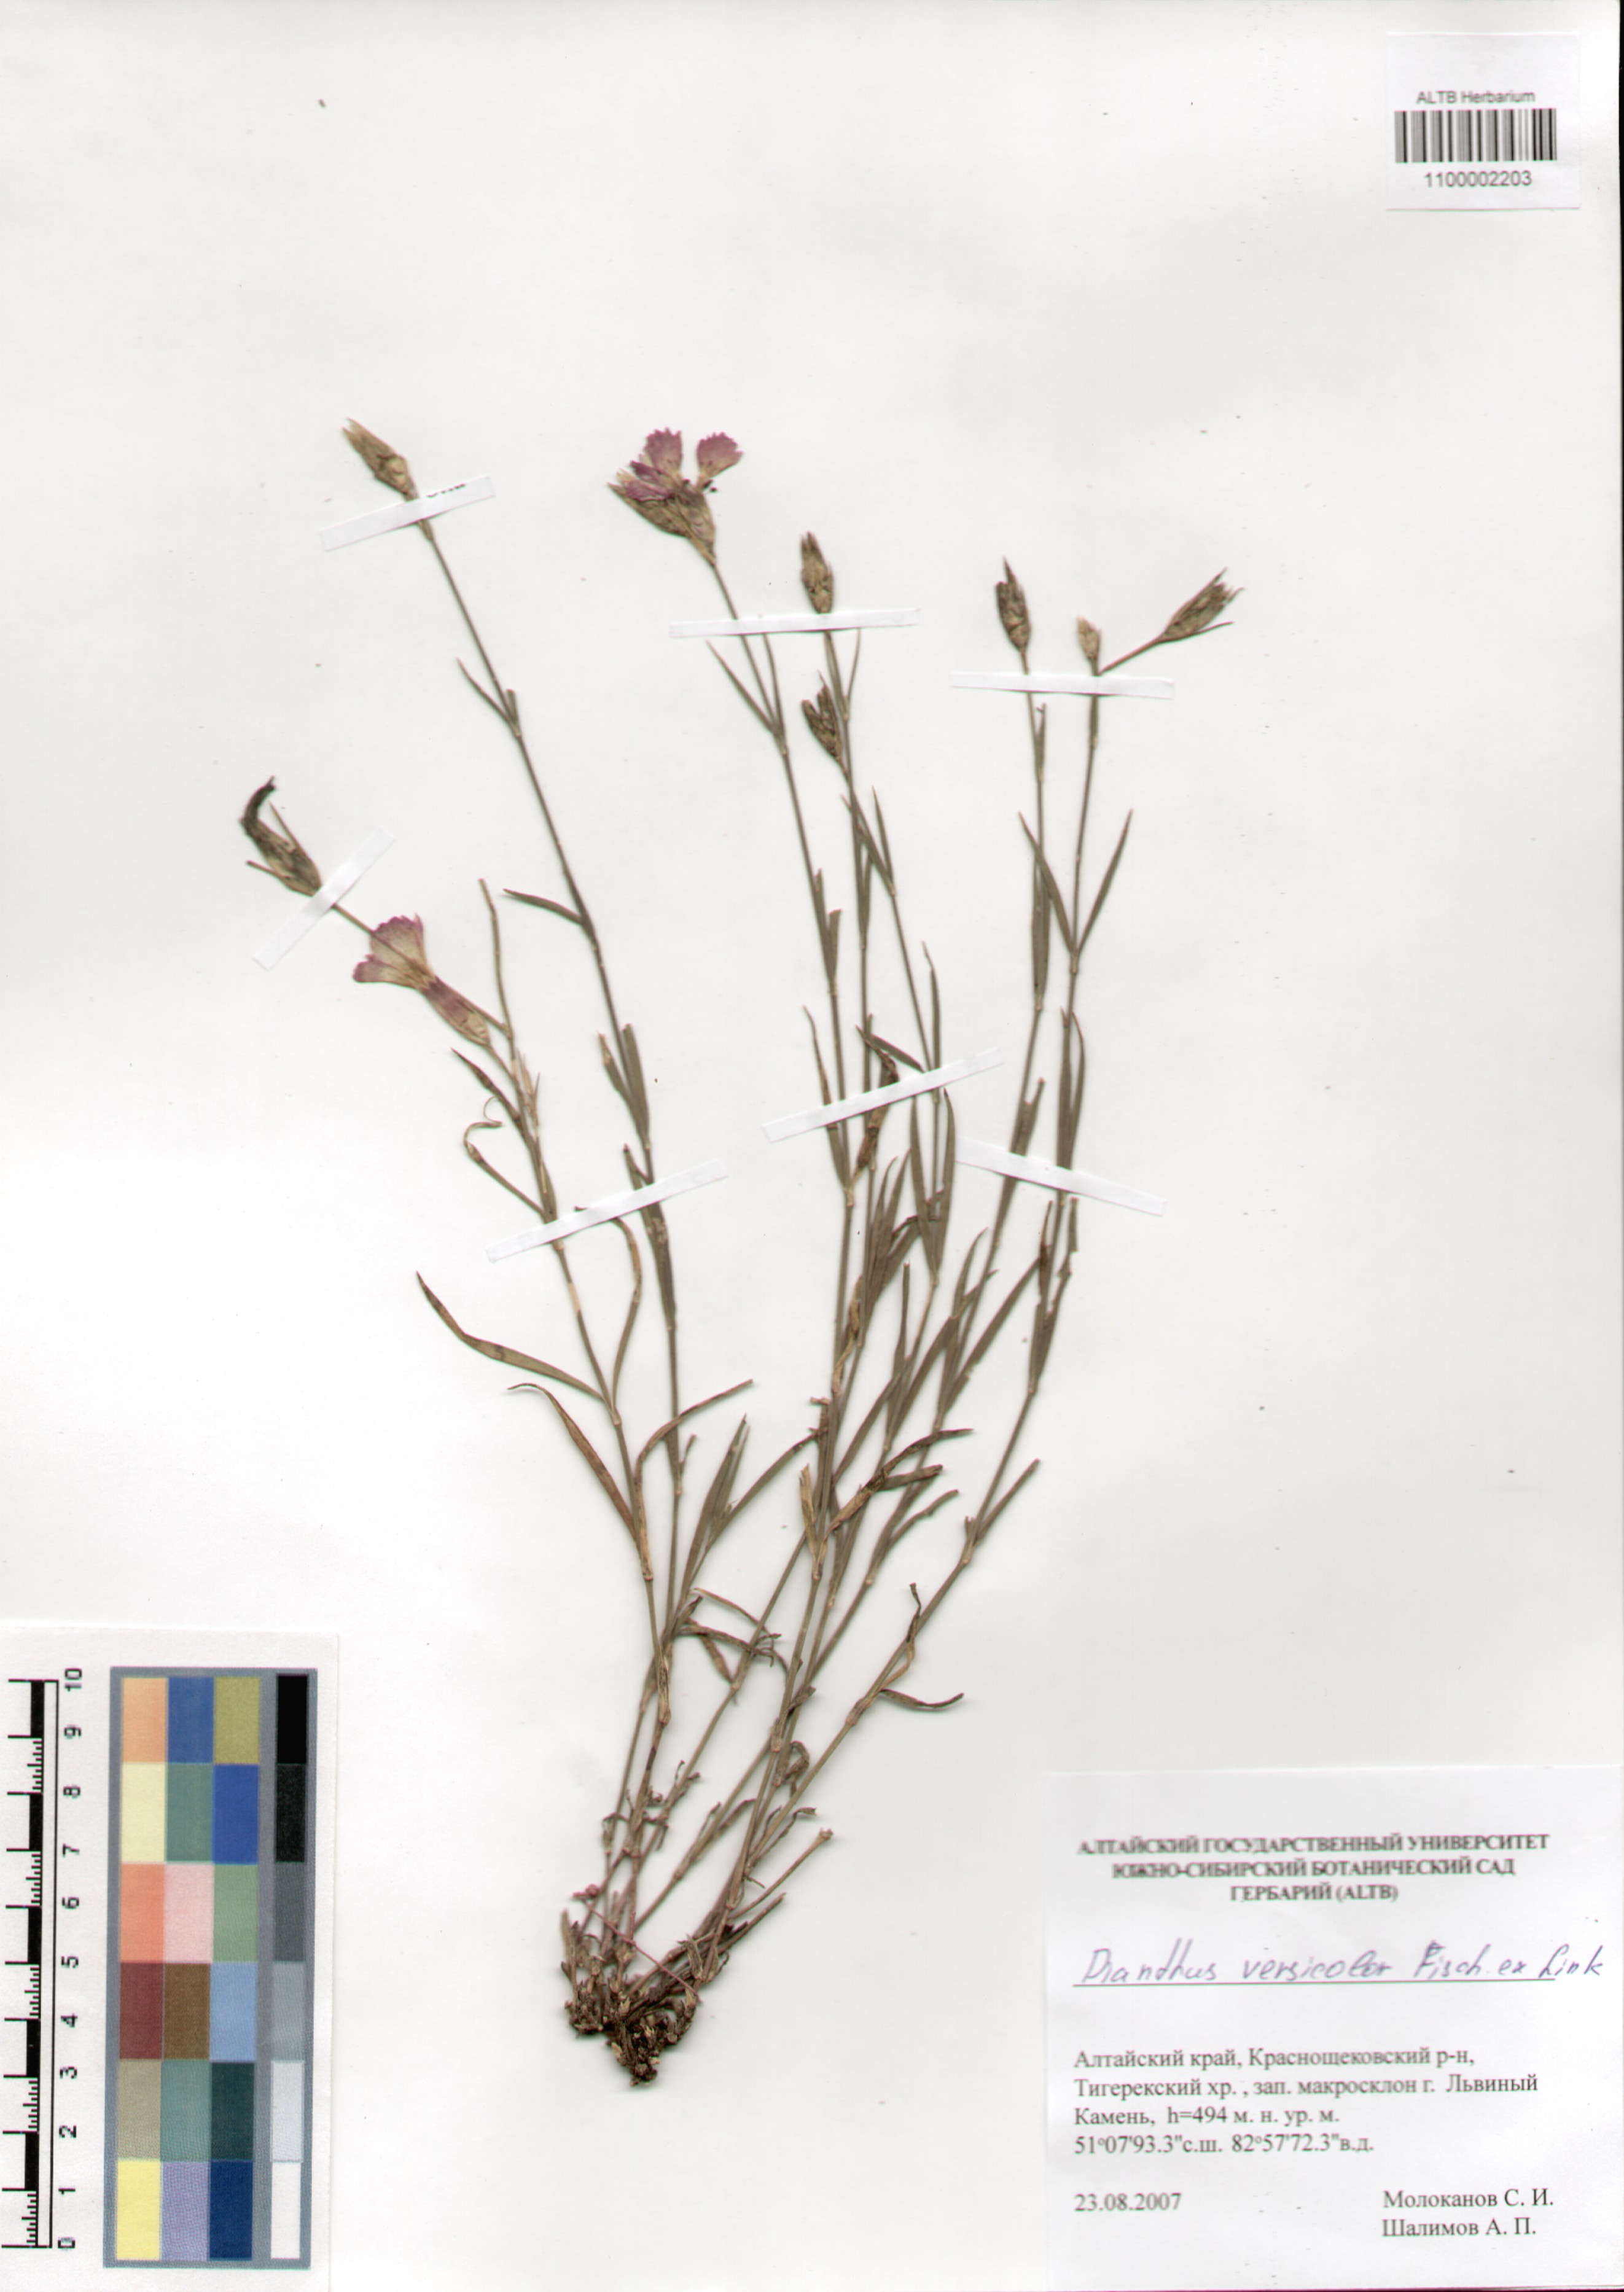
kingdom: Plantae
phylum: Tracheophyta
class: Magnoliopsida
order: Caryophyllales
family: Caryophyllaceae
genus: Dianthus
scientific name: Dianthus chinensis
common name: Rainbow pink
